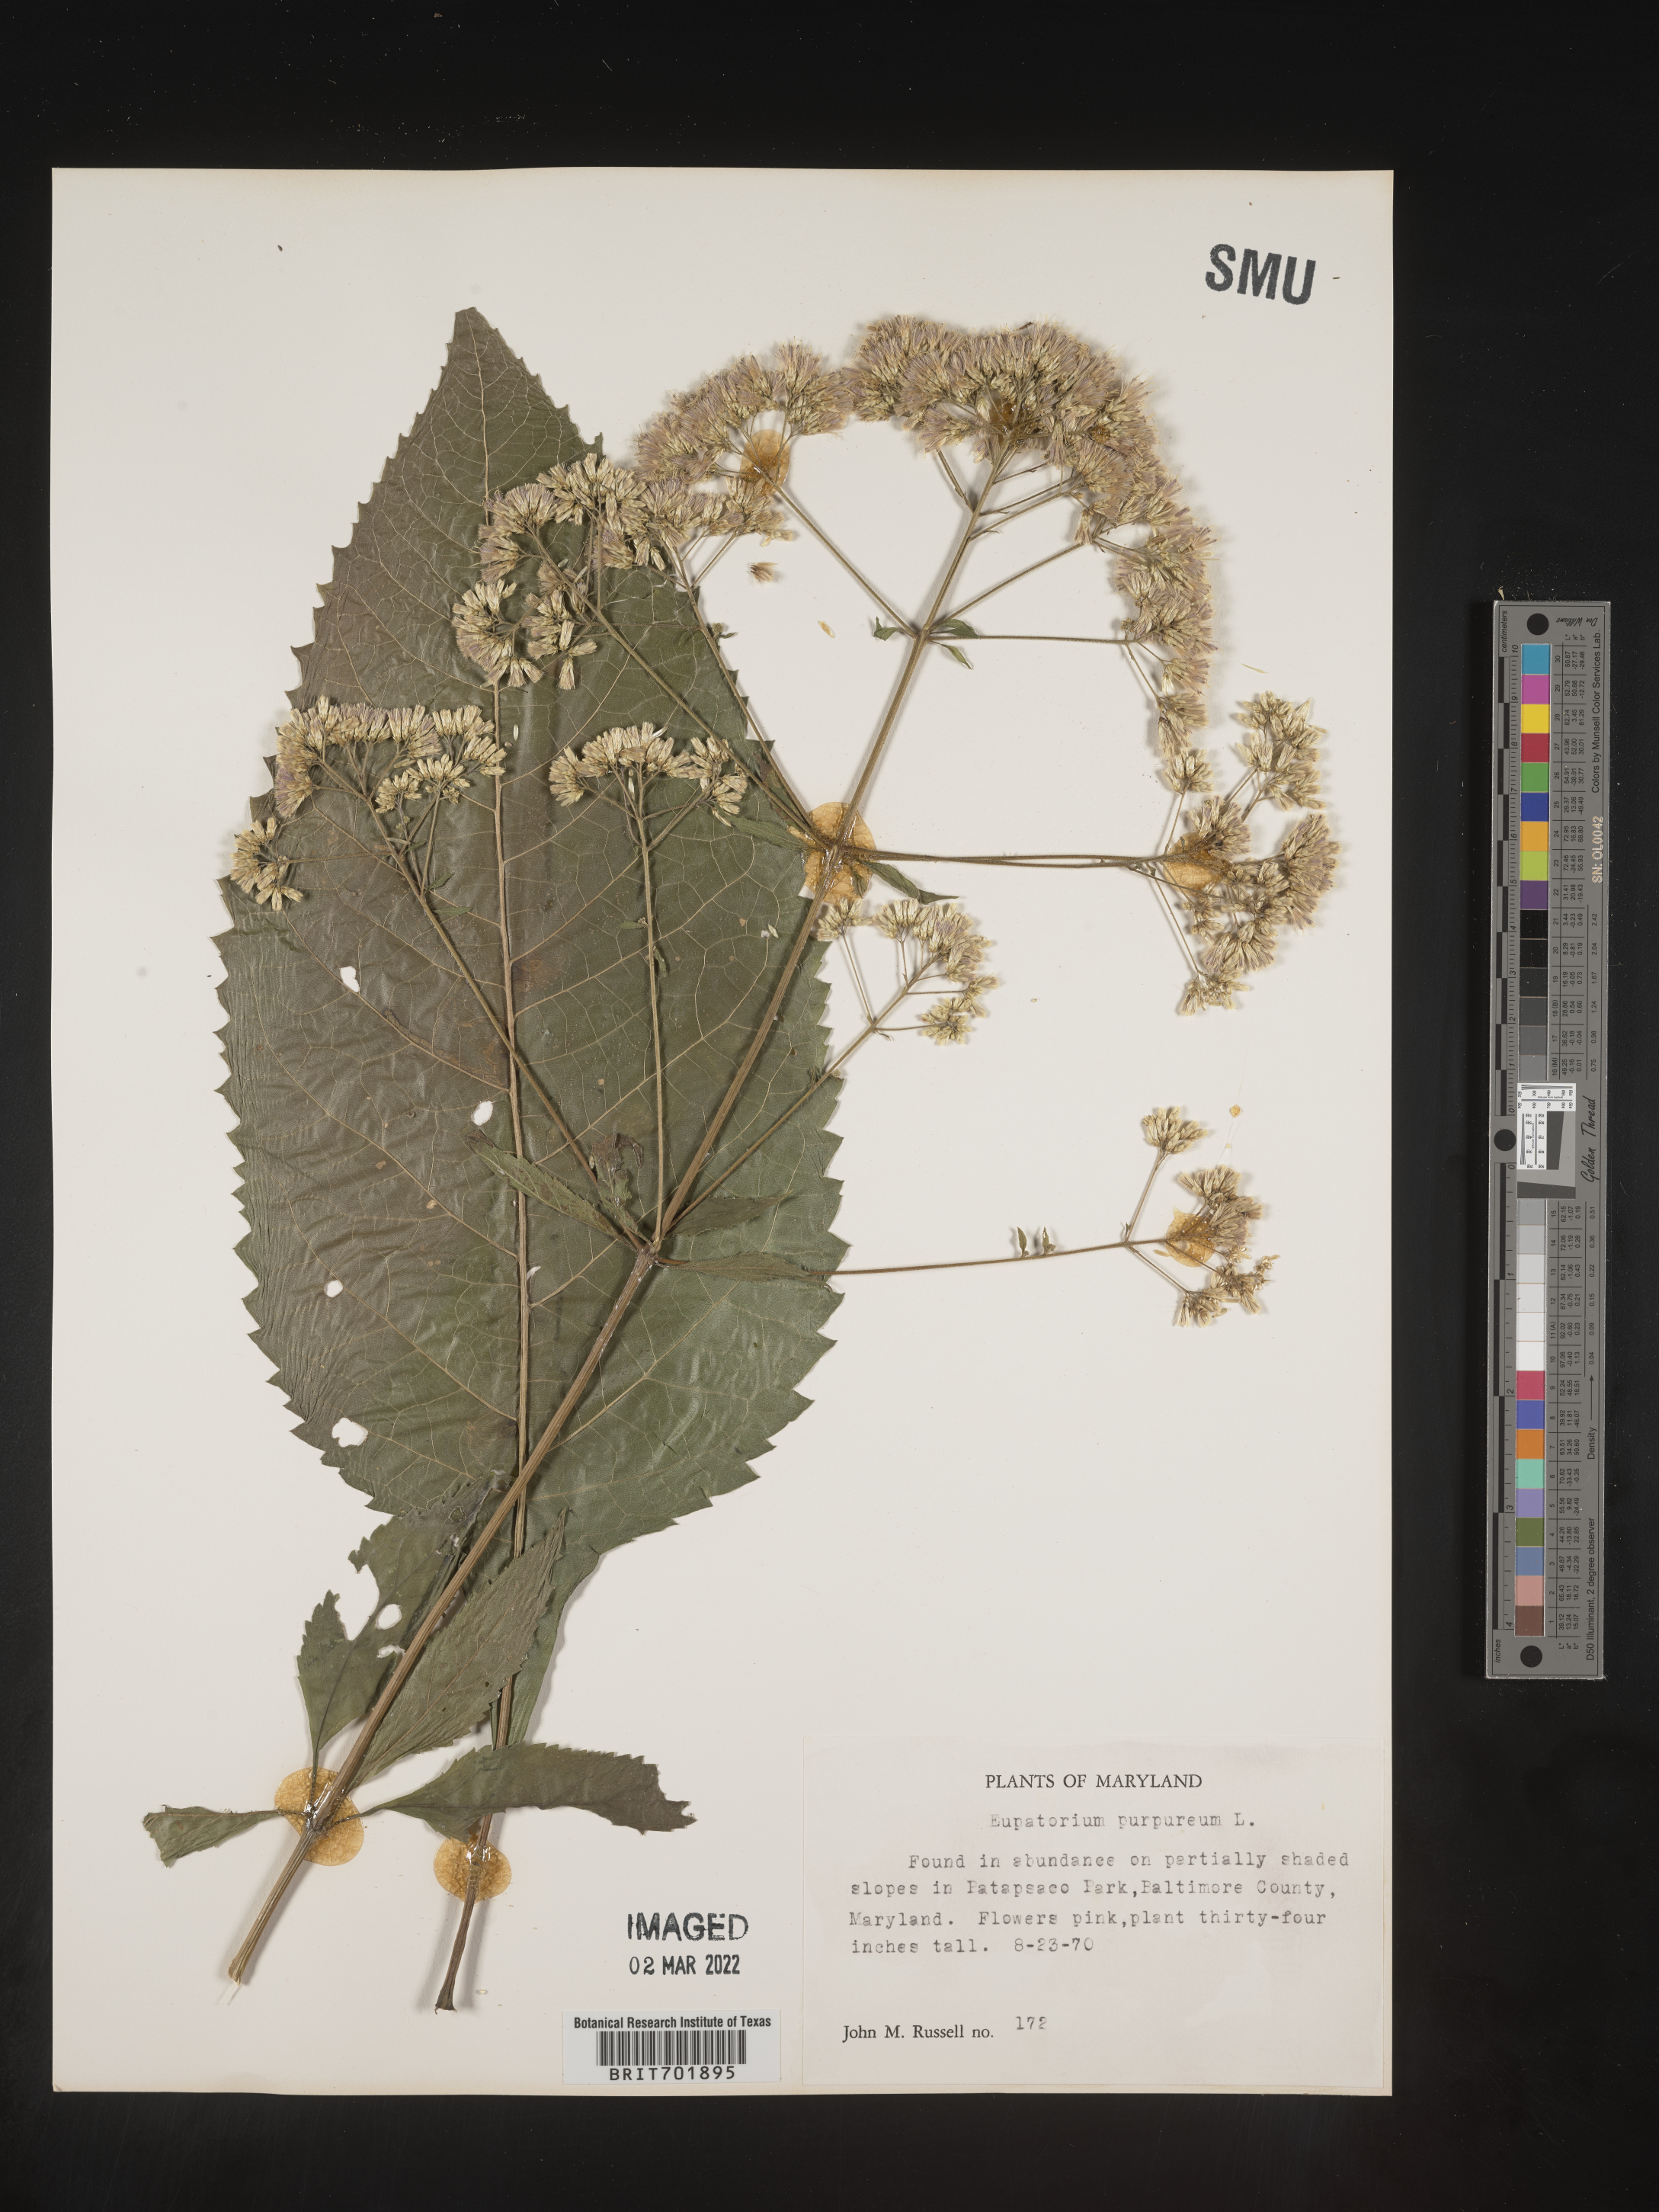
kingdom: Plantae
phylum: Tracheophyta
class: Magnoliopsida
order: Asterales
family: Asteraceae
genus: Eupatorium
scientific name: Eupatorium quaternum
